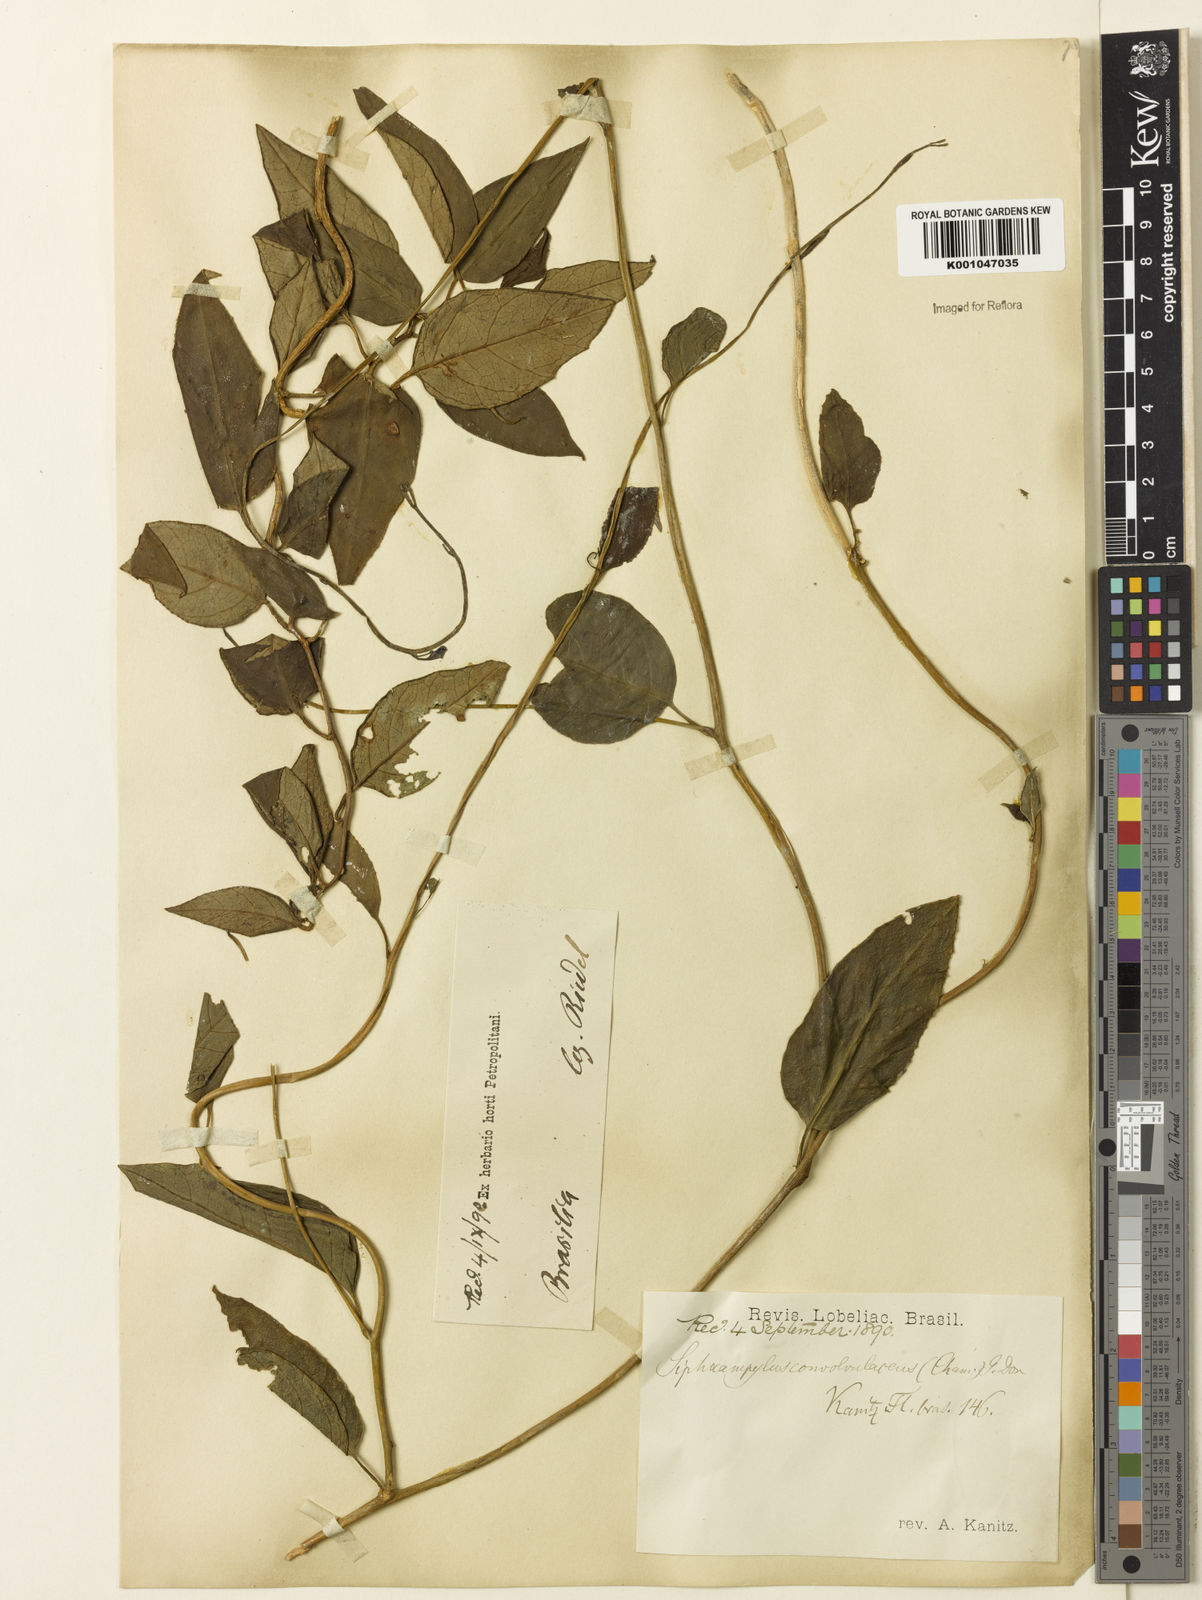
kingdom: Plantae
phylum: Tracheophyta
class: Magnoliopsida
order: Asterales
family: Campanulaceae
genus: Siphocampylus
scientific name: Siphocampylus convolvulaceus
